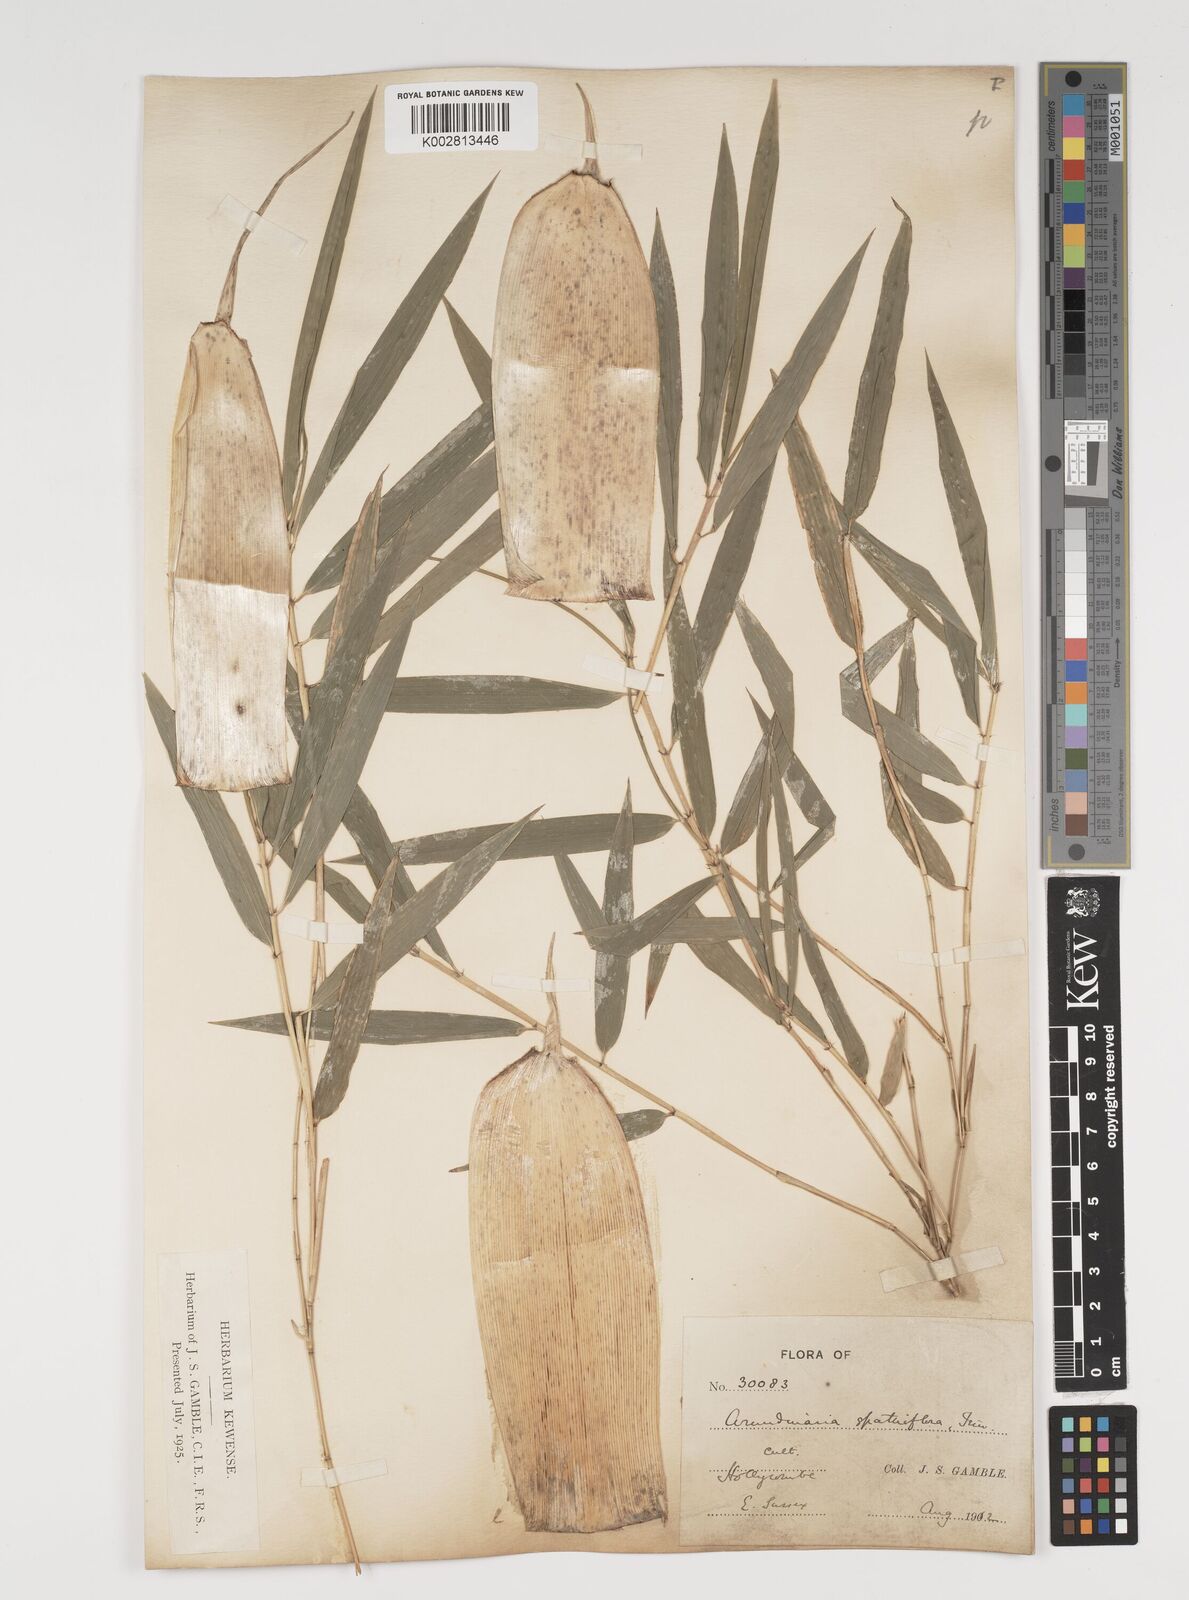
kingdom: Plantae
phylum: Tracheophyta
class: Liliopsida
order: Poales
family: Poaceae
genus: Thamnocalamus
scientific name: Thamnocalamus spathiflorus
